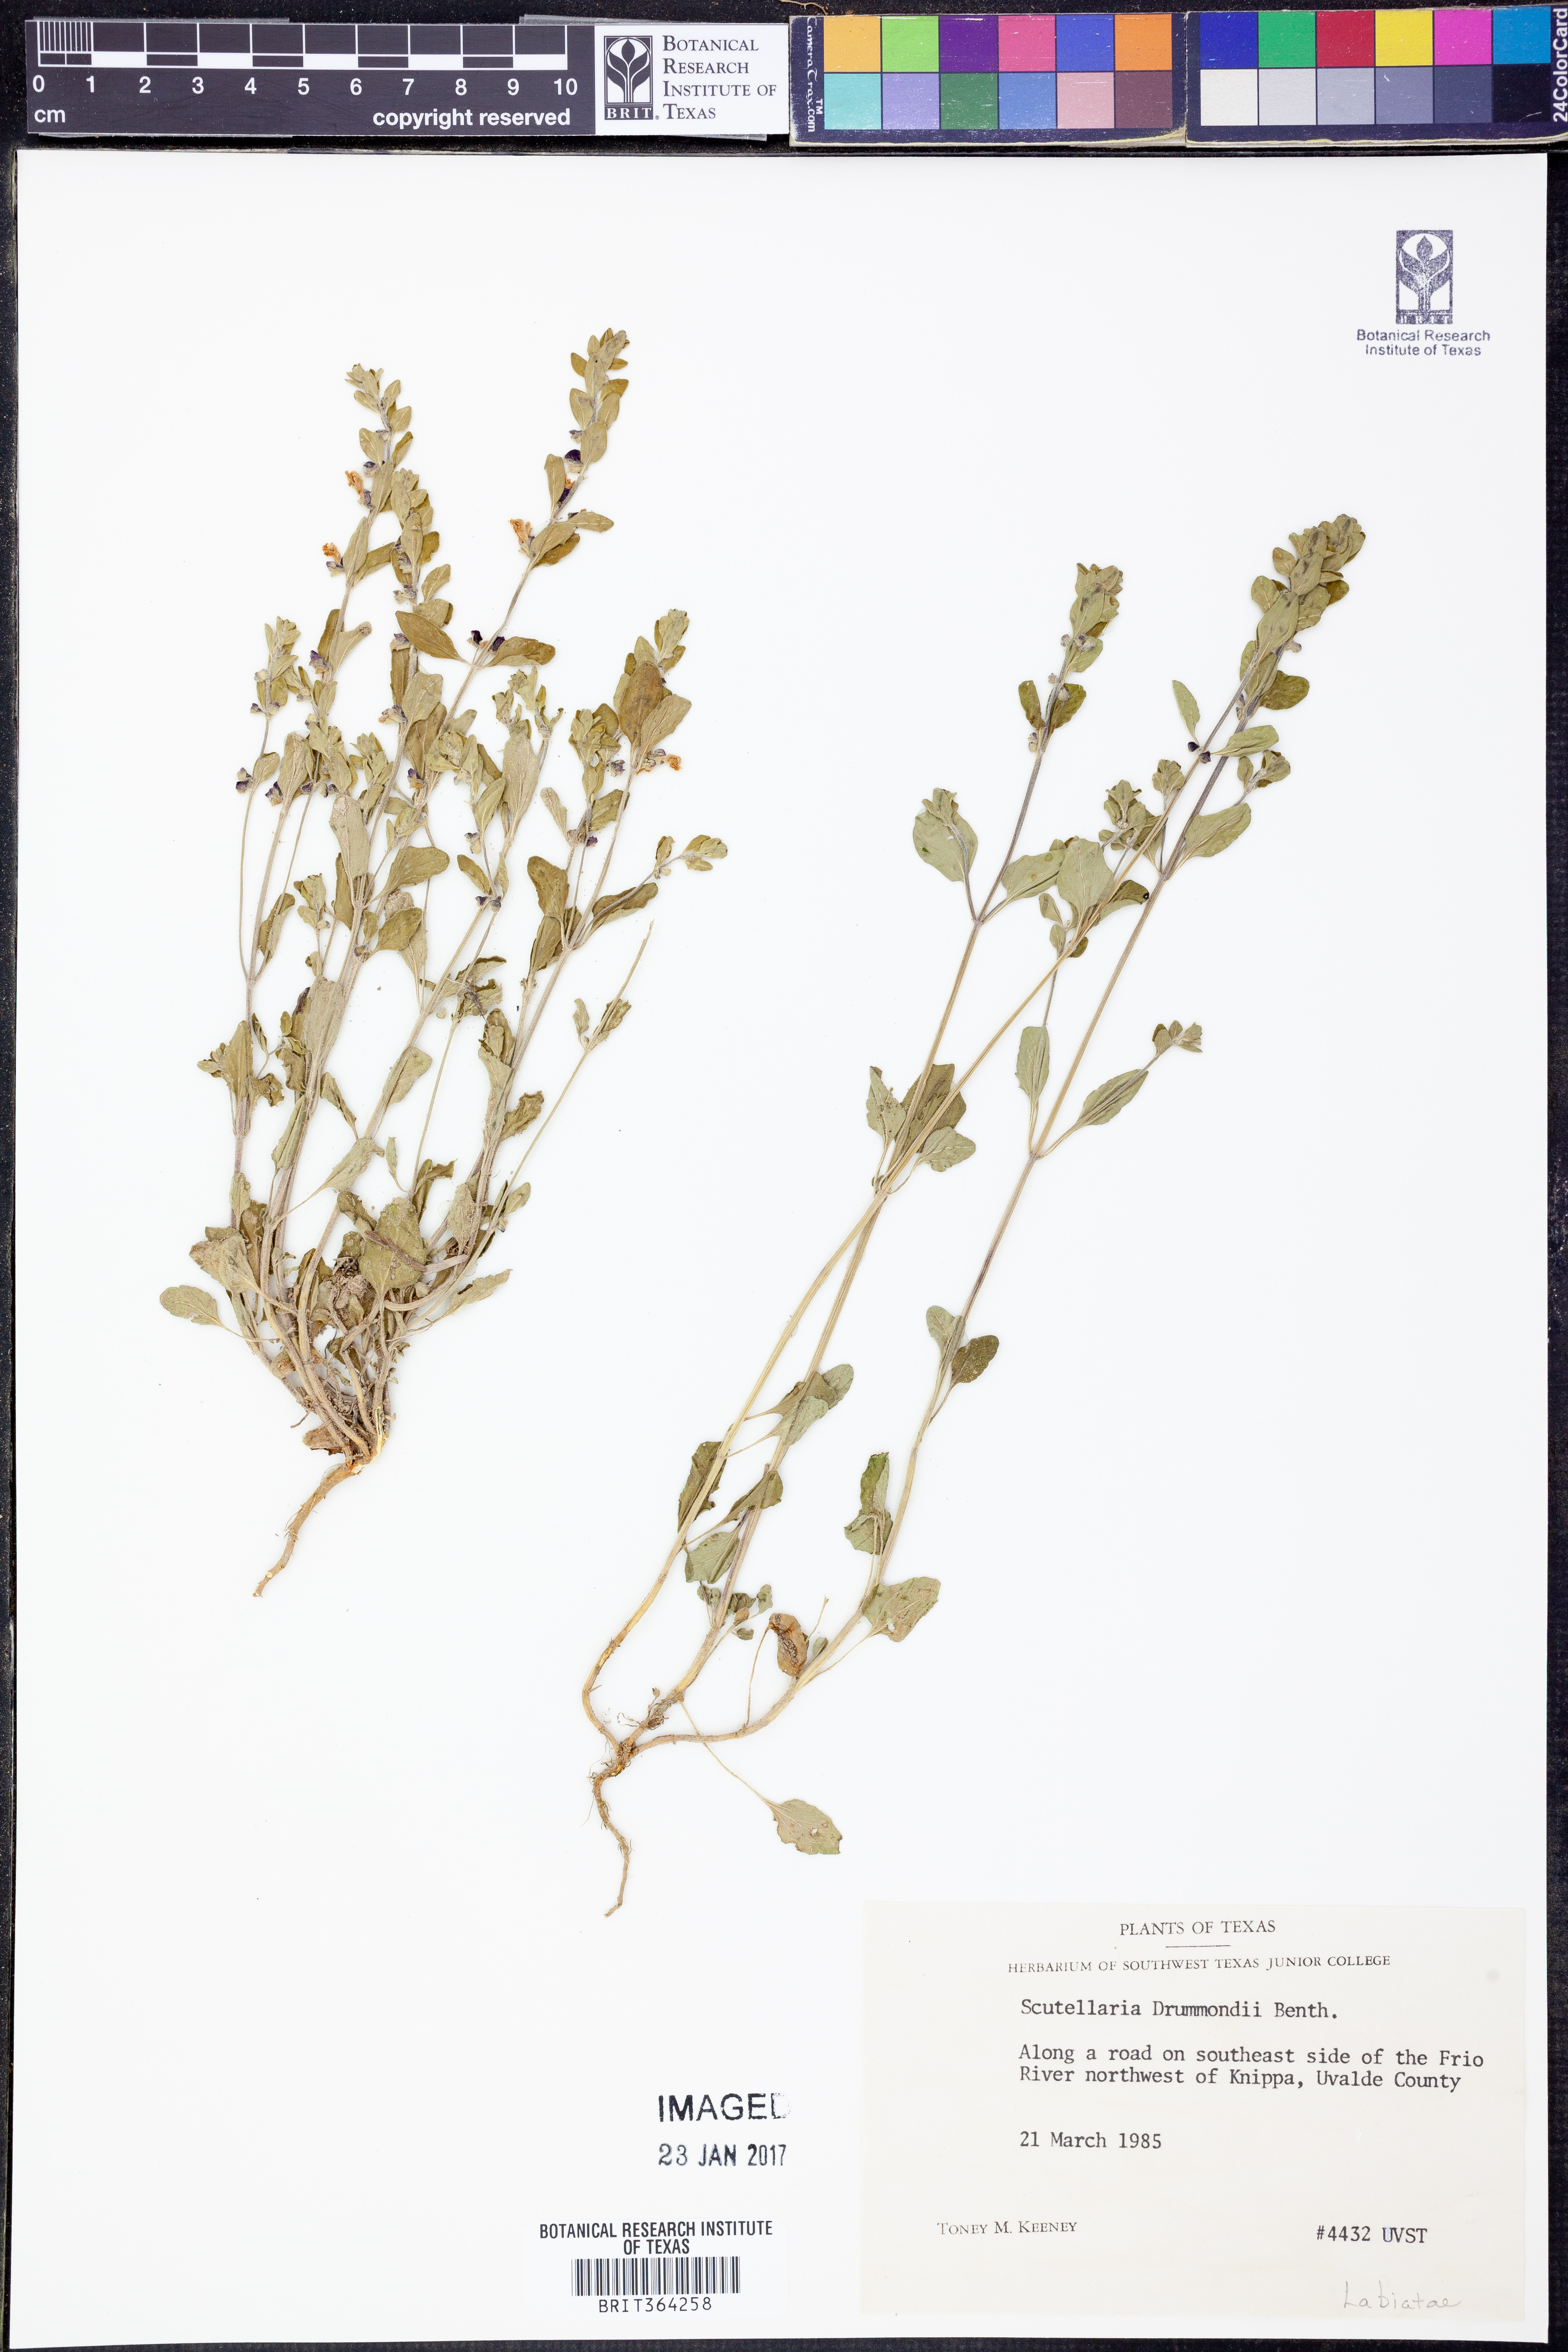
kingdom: Plantae
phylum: Tracheophyta
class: Magnoliopsida
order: Lamiales
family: Lamiaceae
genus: Scutellaria
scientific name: Scutellaria drummondii
